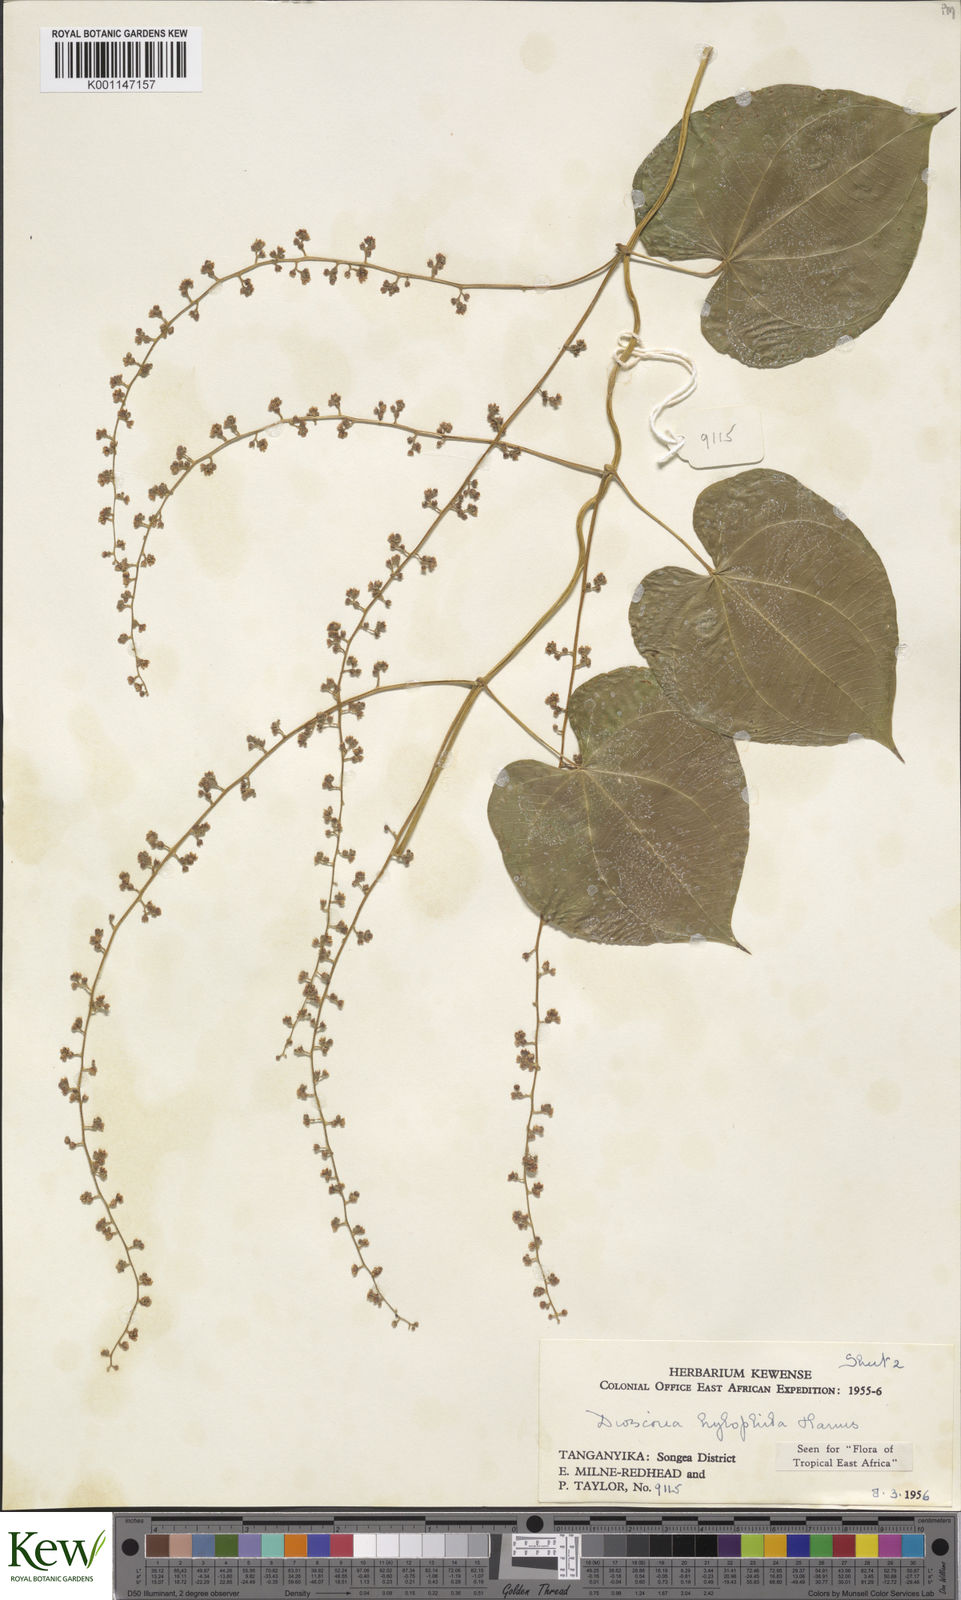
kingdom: Plantae
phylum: Tracheophyta
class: Liliopsida
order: Dioscoreales
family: Dioscoreaceae
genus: Dioscorea
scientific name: Dioscorea
